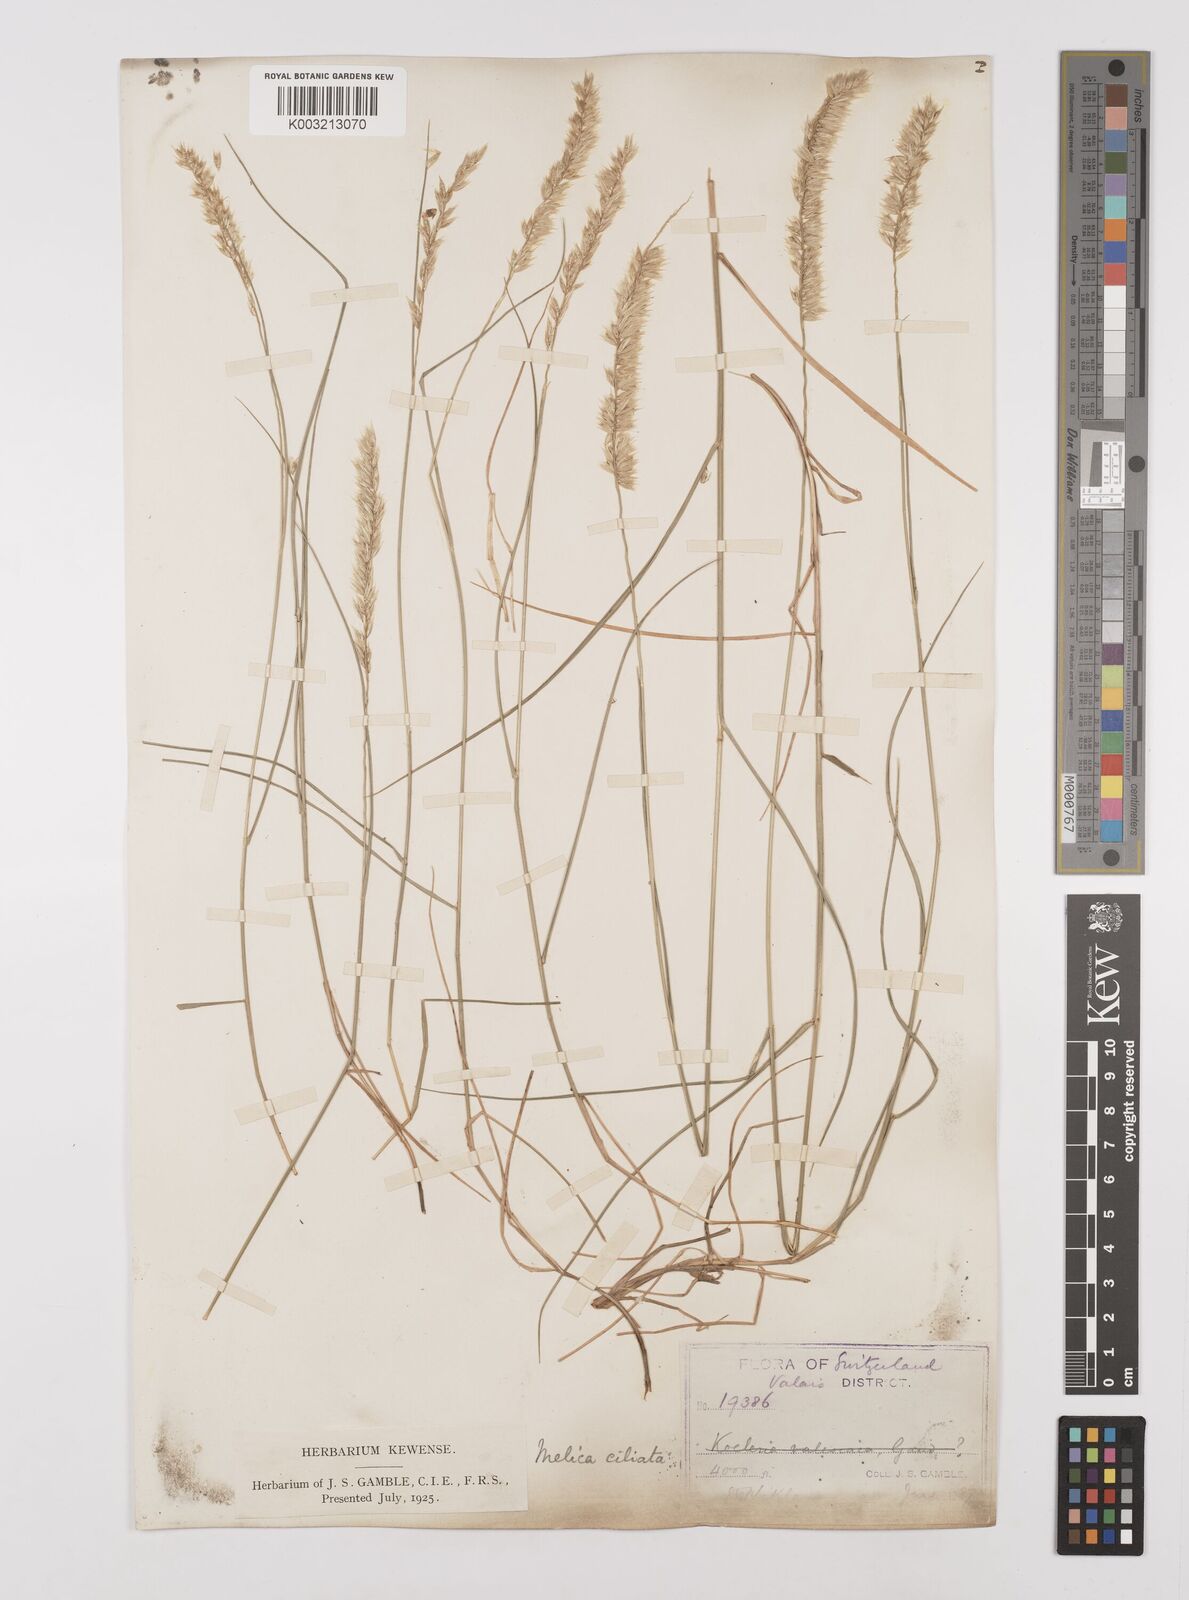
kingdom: Plantae
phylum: Tracheophyta
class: Liliopsida
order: Poales
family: Poaceae
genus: Melica
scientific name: Melica ciliata
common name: Hairy melicgrass
